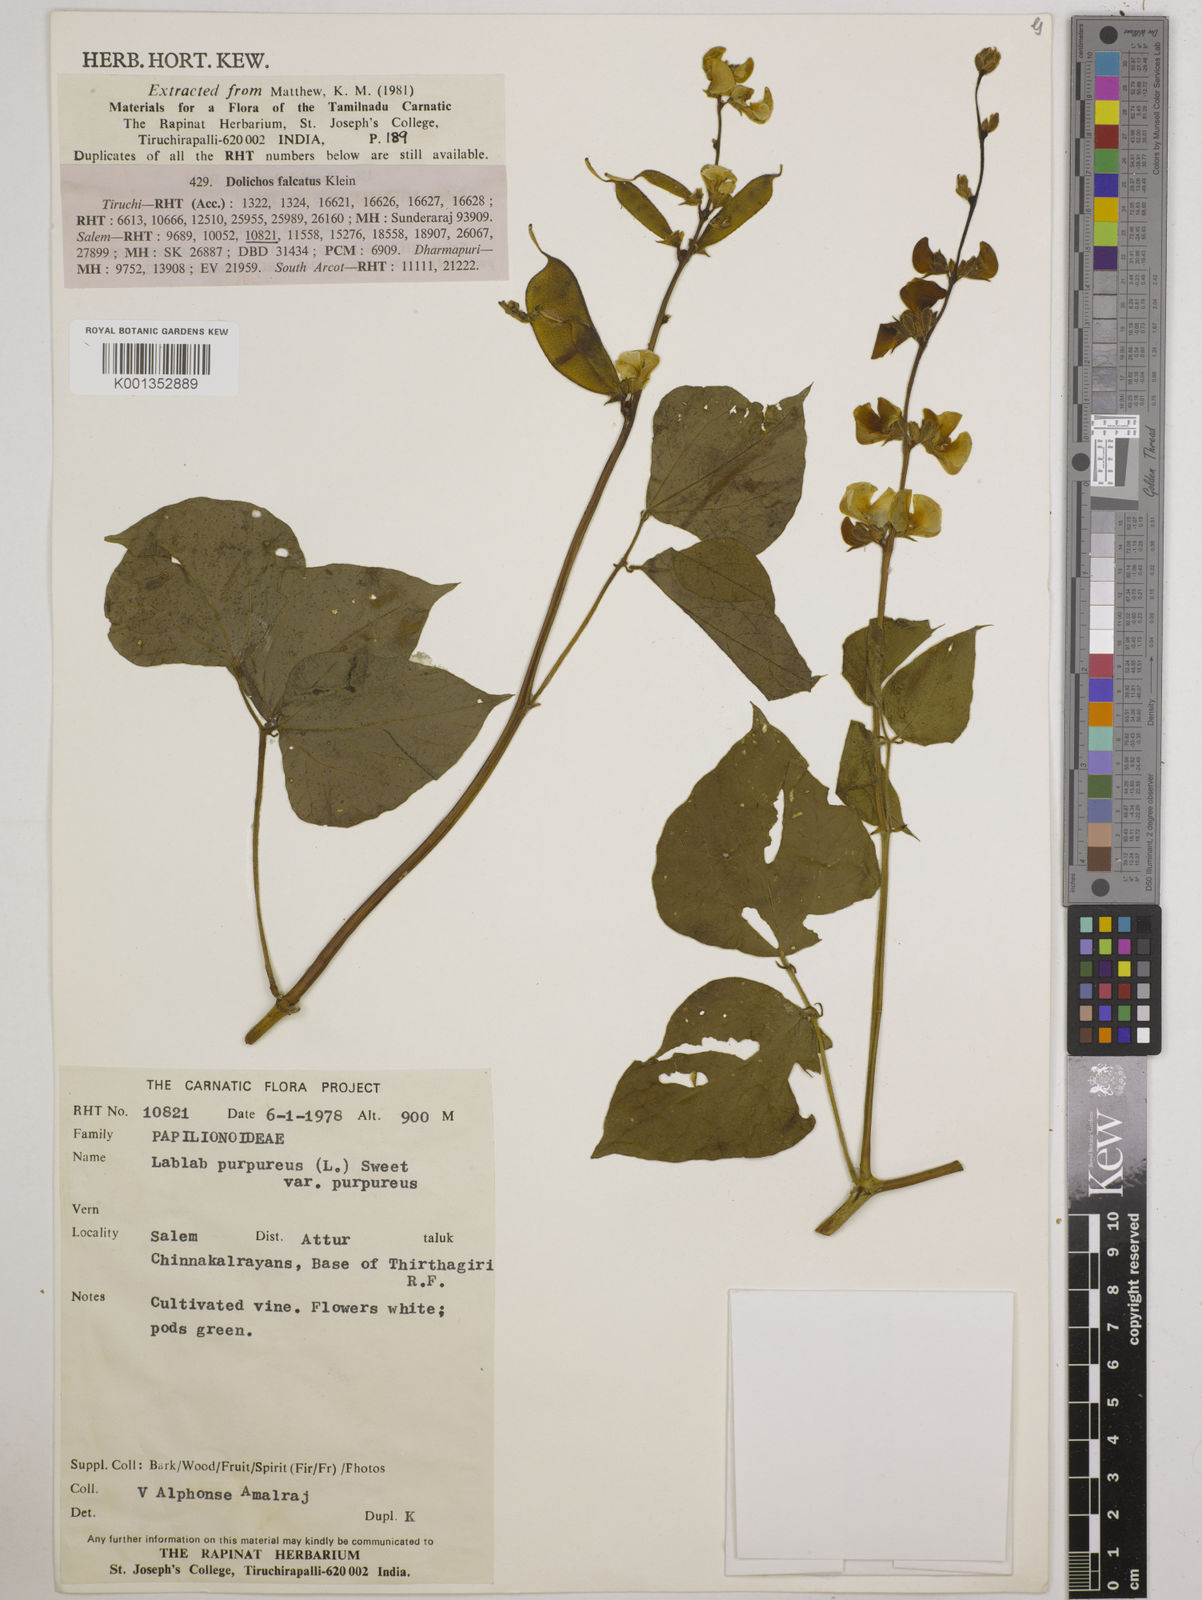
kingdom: Plantae
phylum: Tracheophyta
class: Magnoliopsida
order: Fabales
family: Fabaceae
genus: Lablab
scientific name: Lablab purpureus
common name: Lablab-bean
